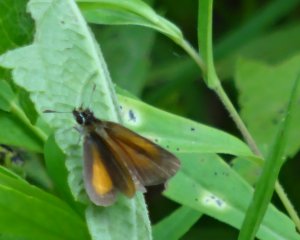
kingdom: Animalia
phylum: Arthropoda
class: Insecta
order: Lepidoptera
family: Hesperiidae
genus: Ancyloxypha
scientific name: Ancyloxypha numitor
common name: Least Skipper
